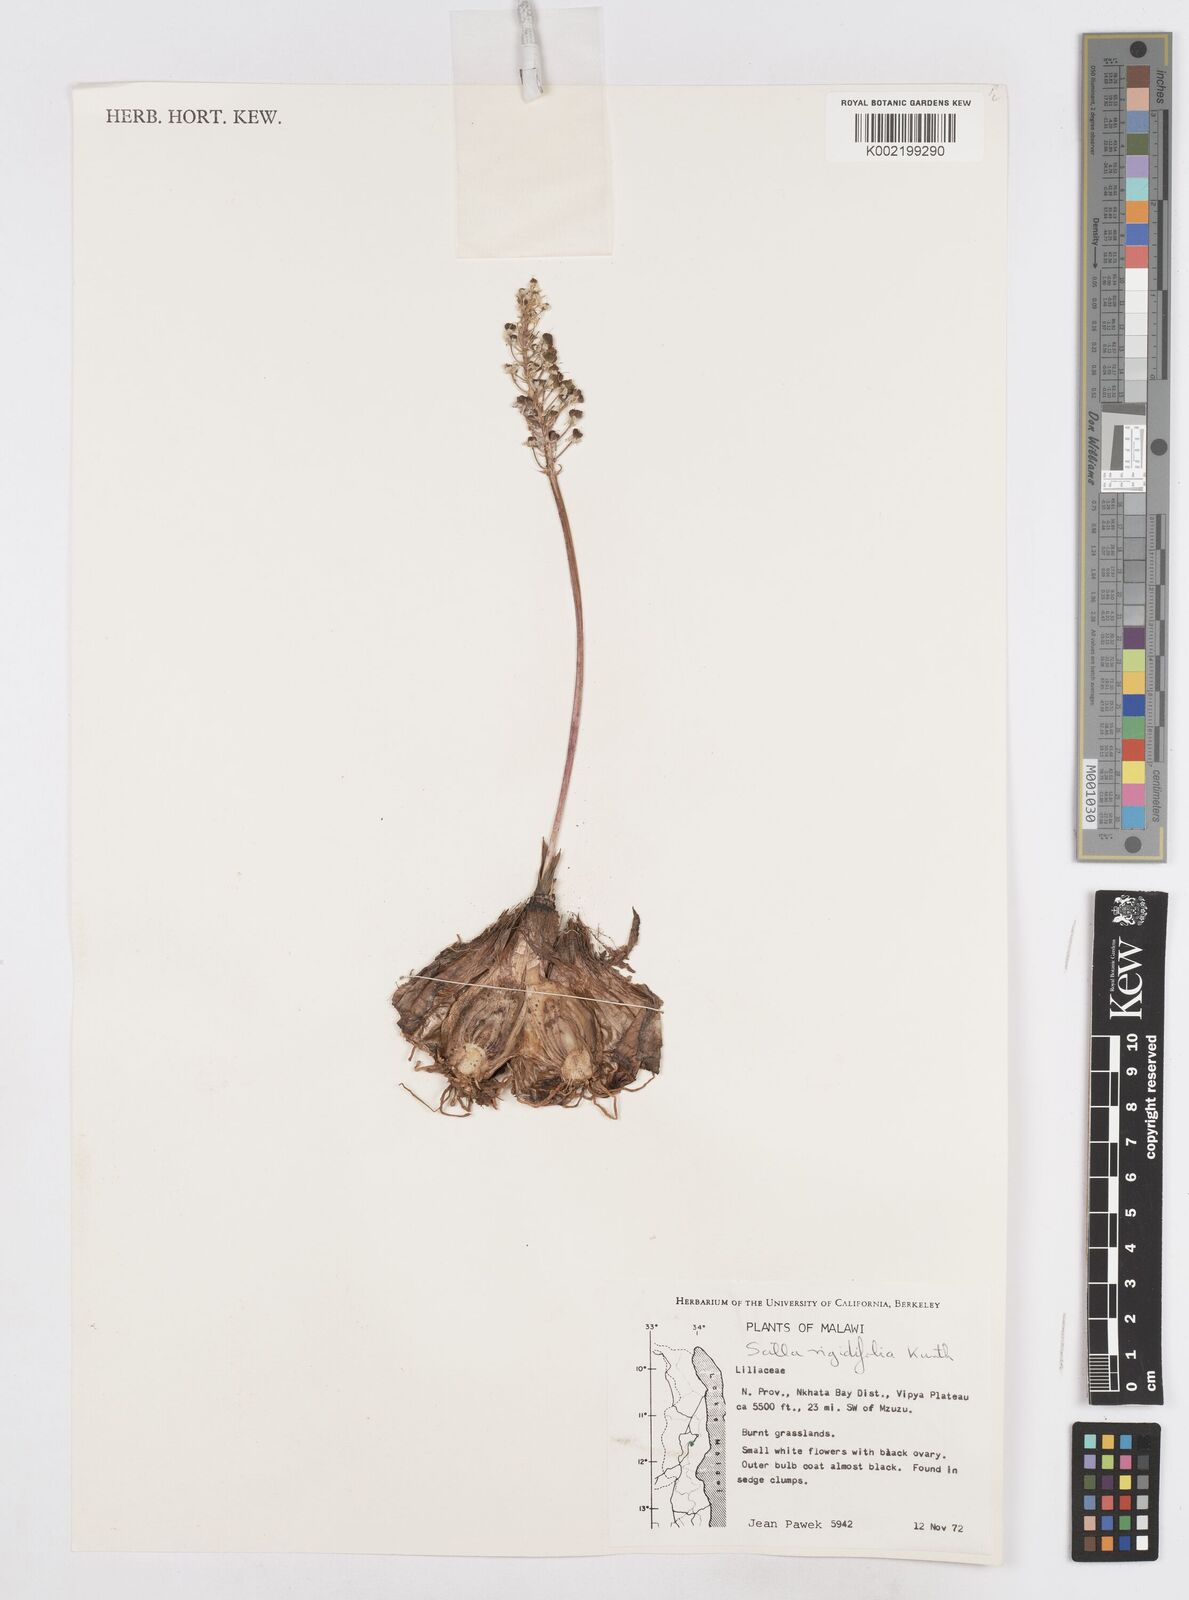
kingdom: Plantae
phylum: Tracheophyta
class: Liliopsida
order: Asparagales
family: Asparagaceae
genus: Schizocarphus
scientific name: Schizocarphus nervosus
